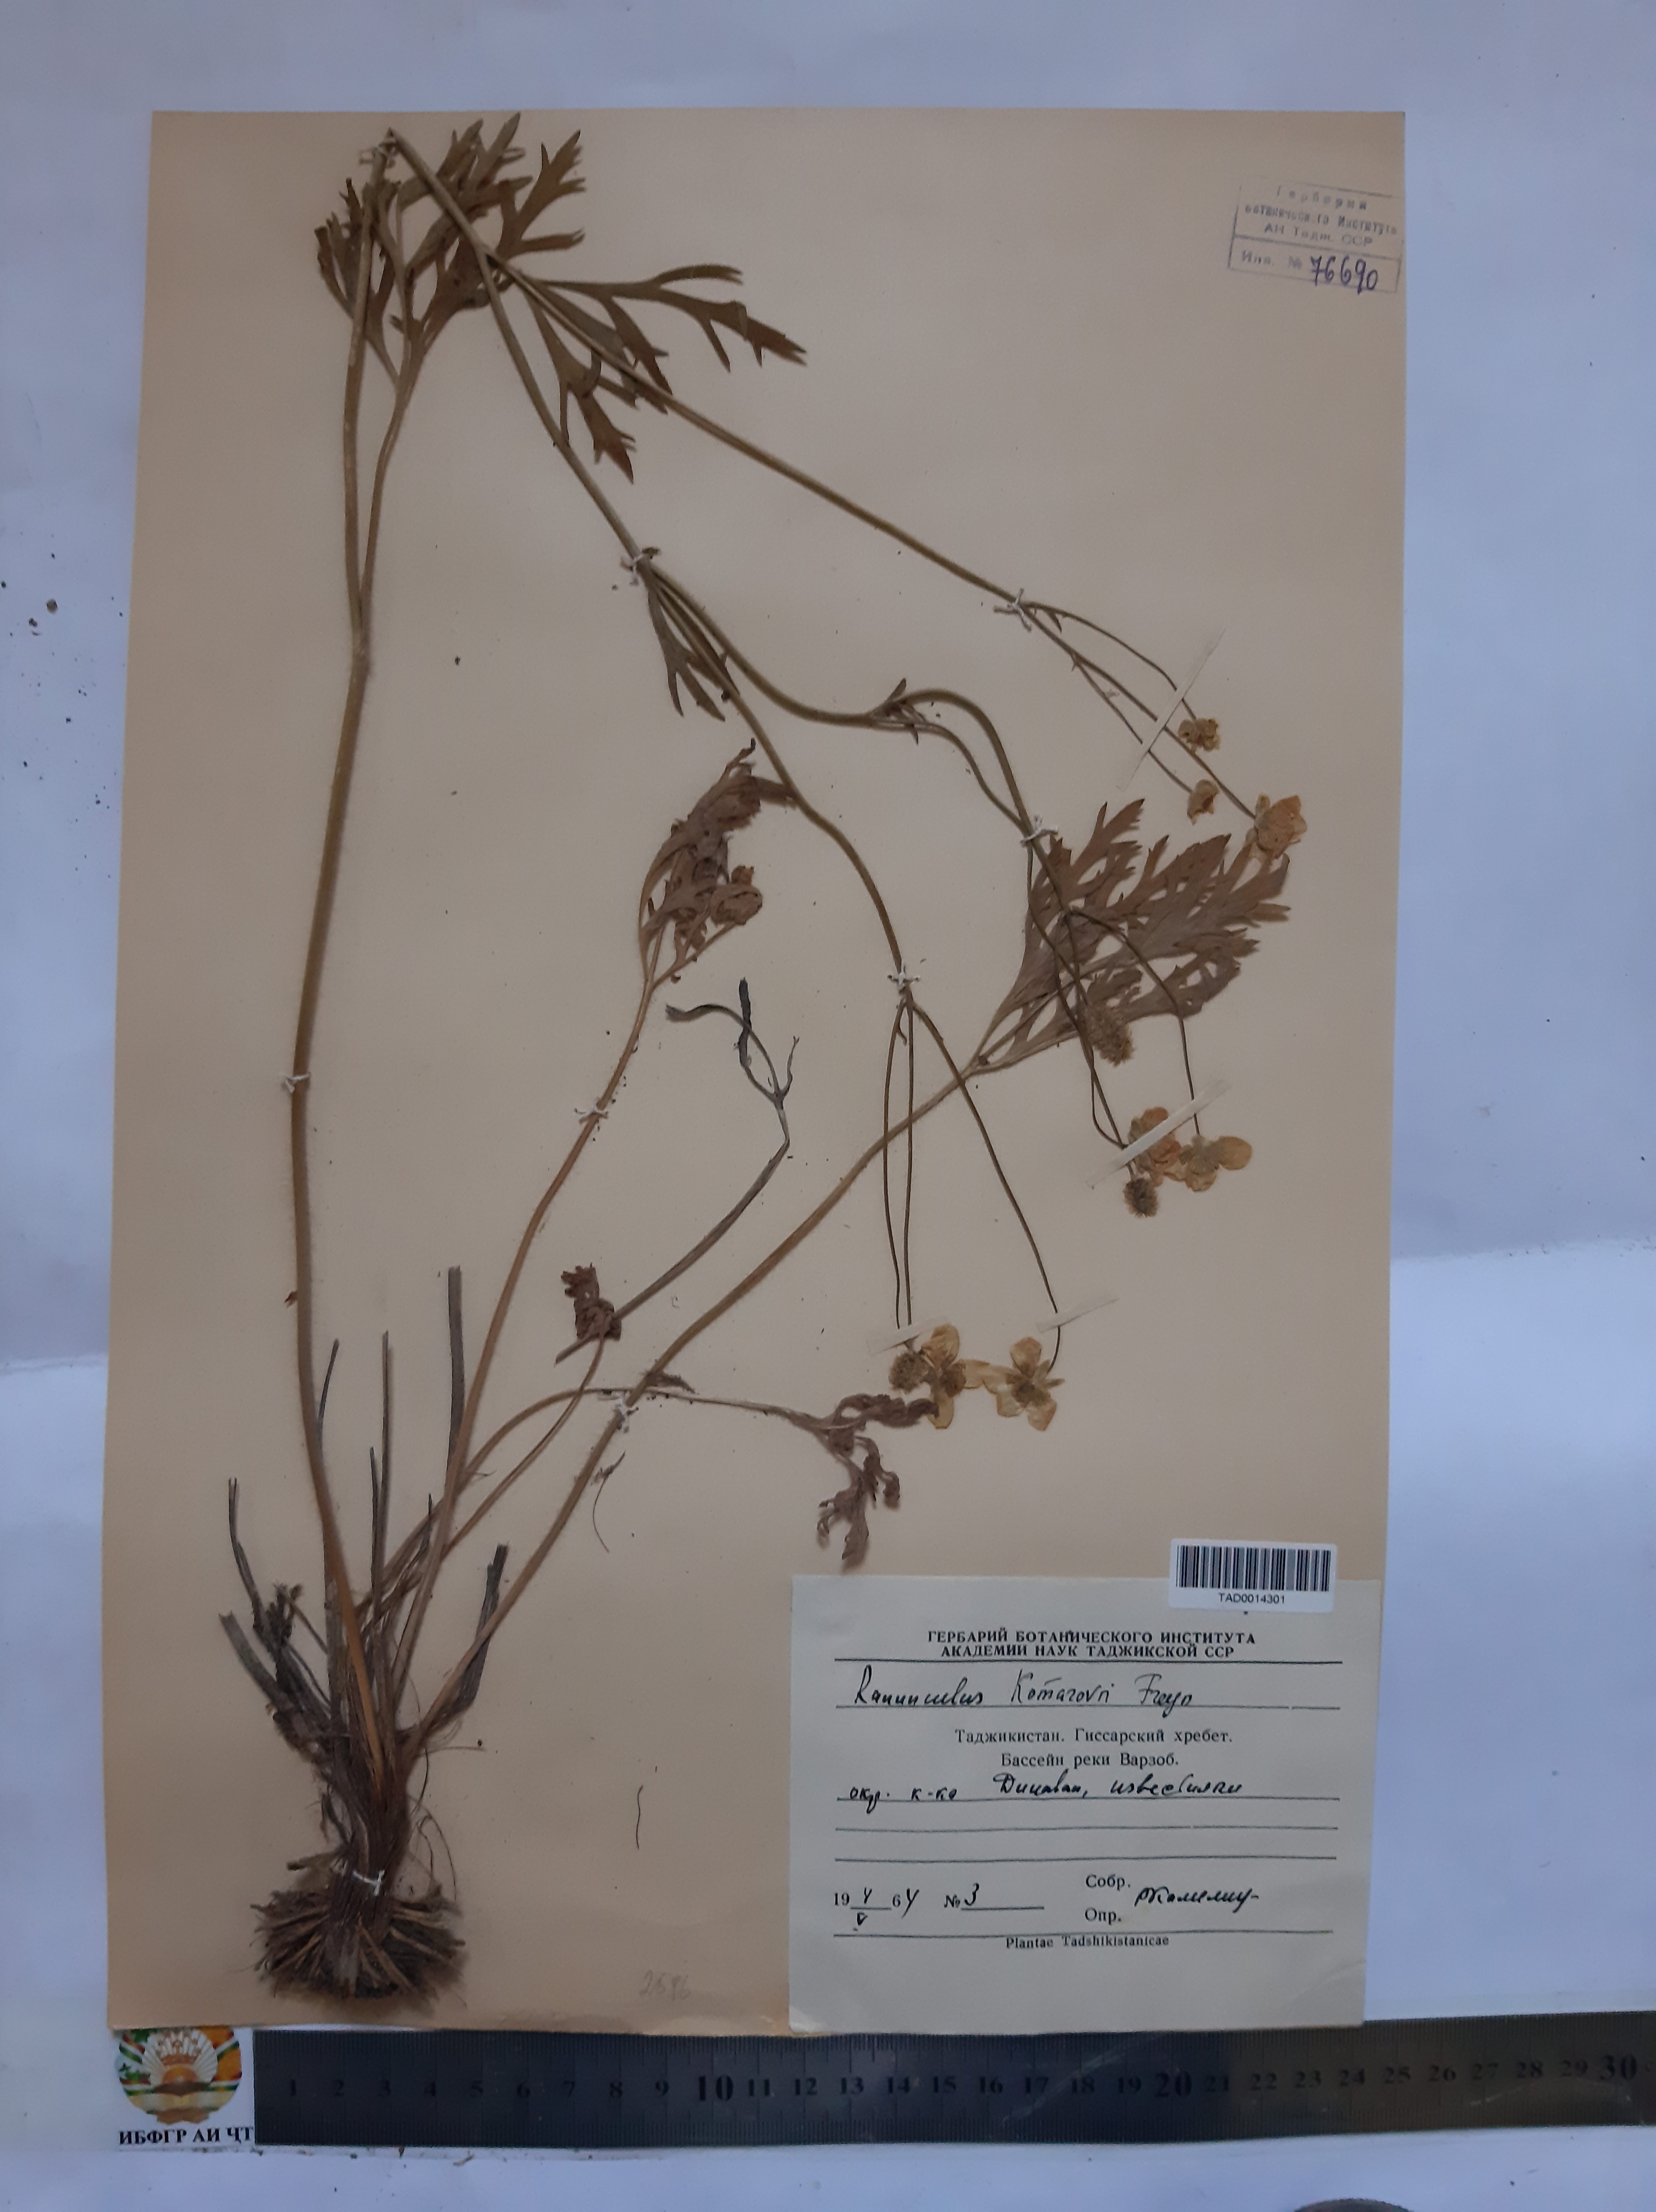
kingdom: Plantae
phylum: Tracheophyta
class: Magnoliopsida
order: Ranunculales
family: Ranunculaceae
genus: Ranunculus
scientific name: Ranunculus komarovii
